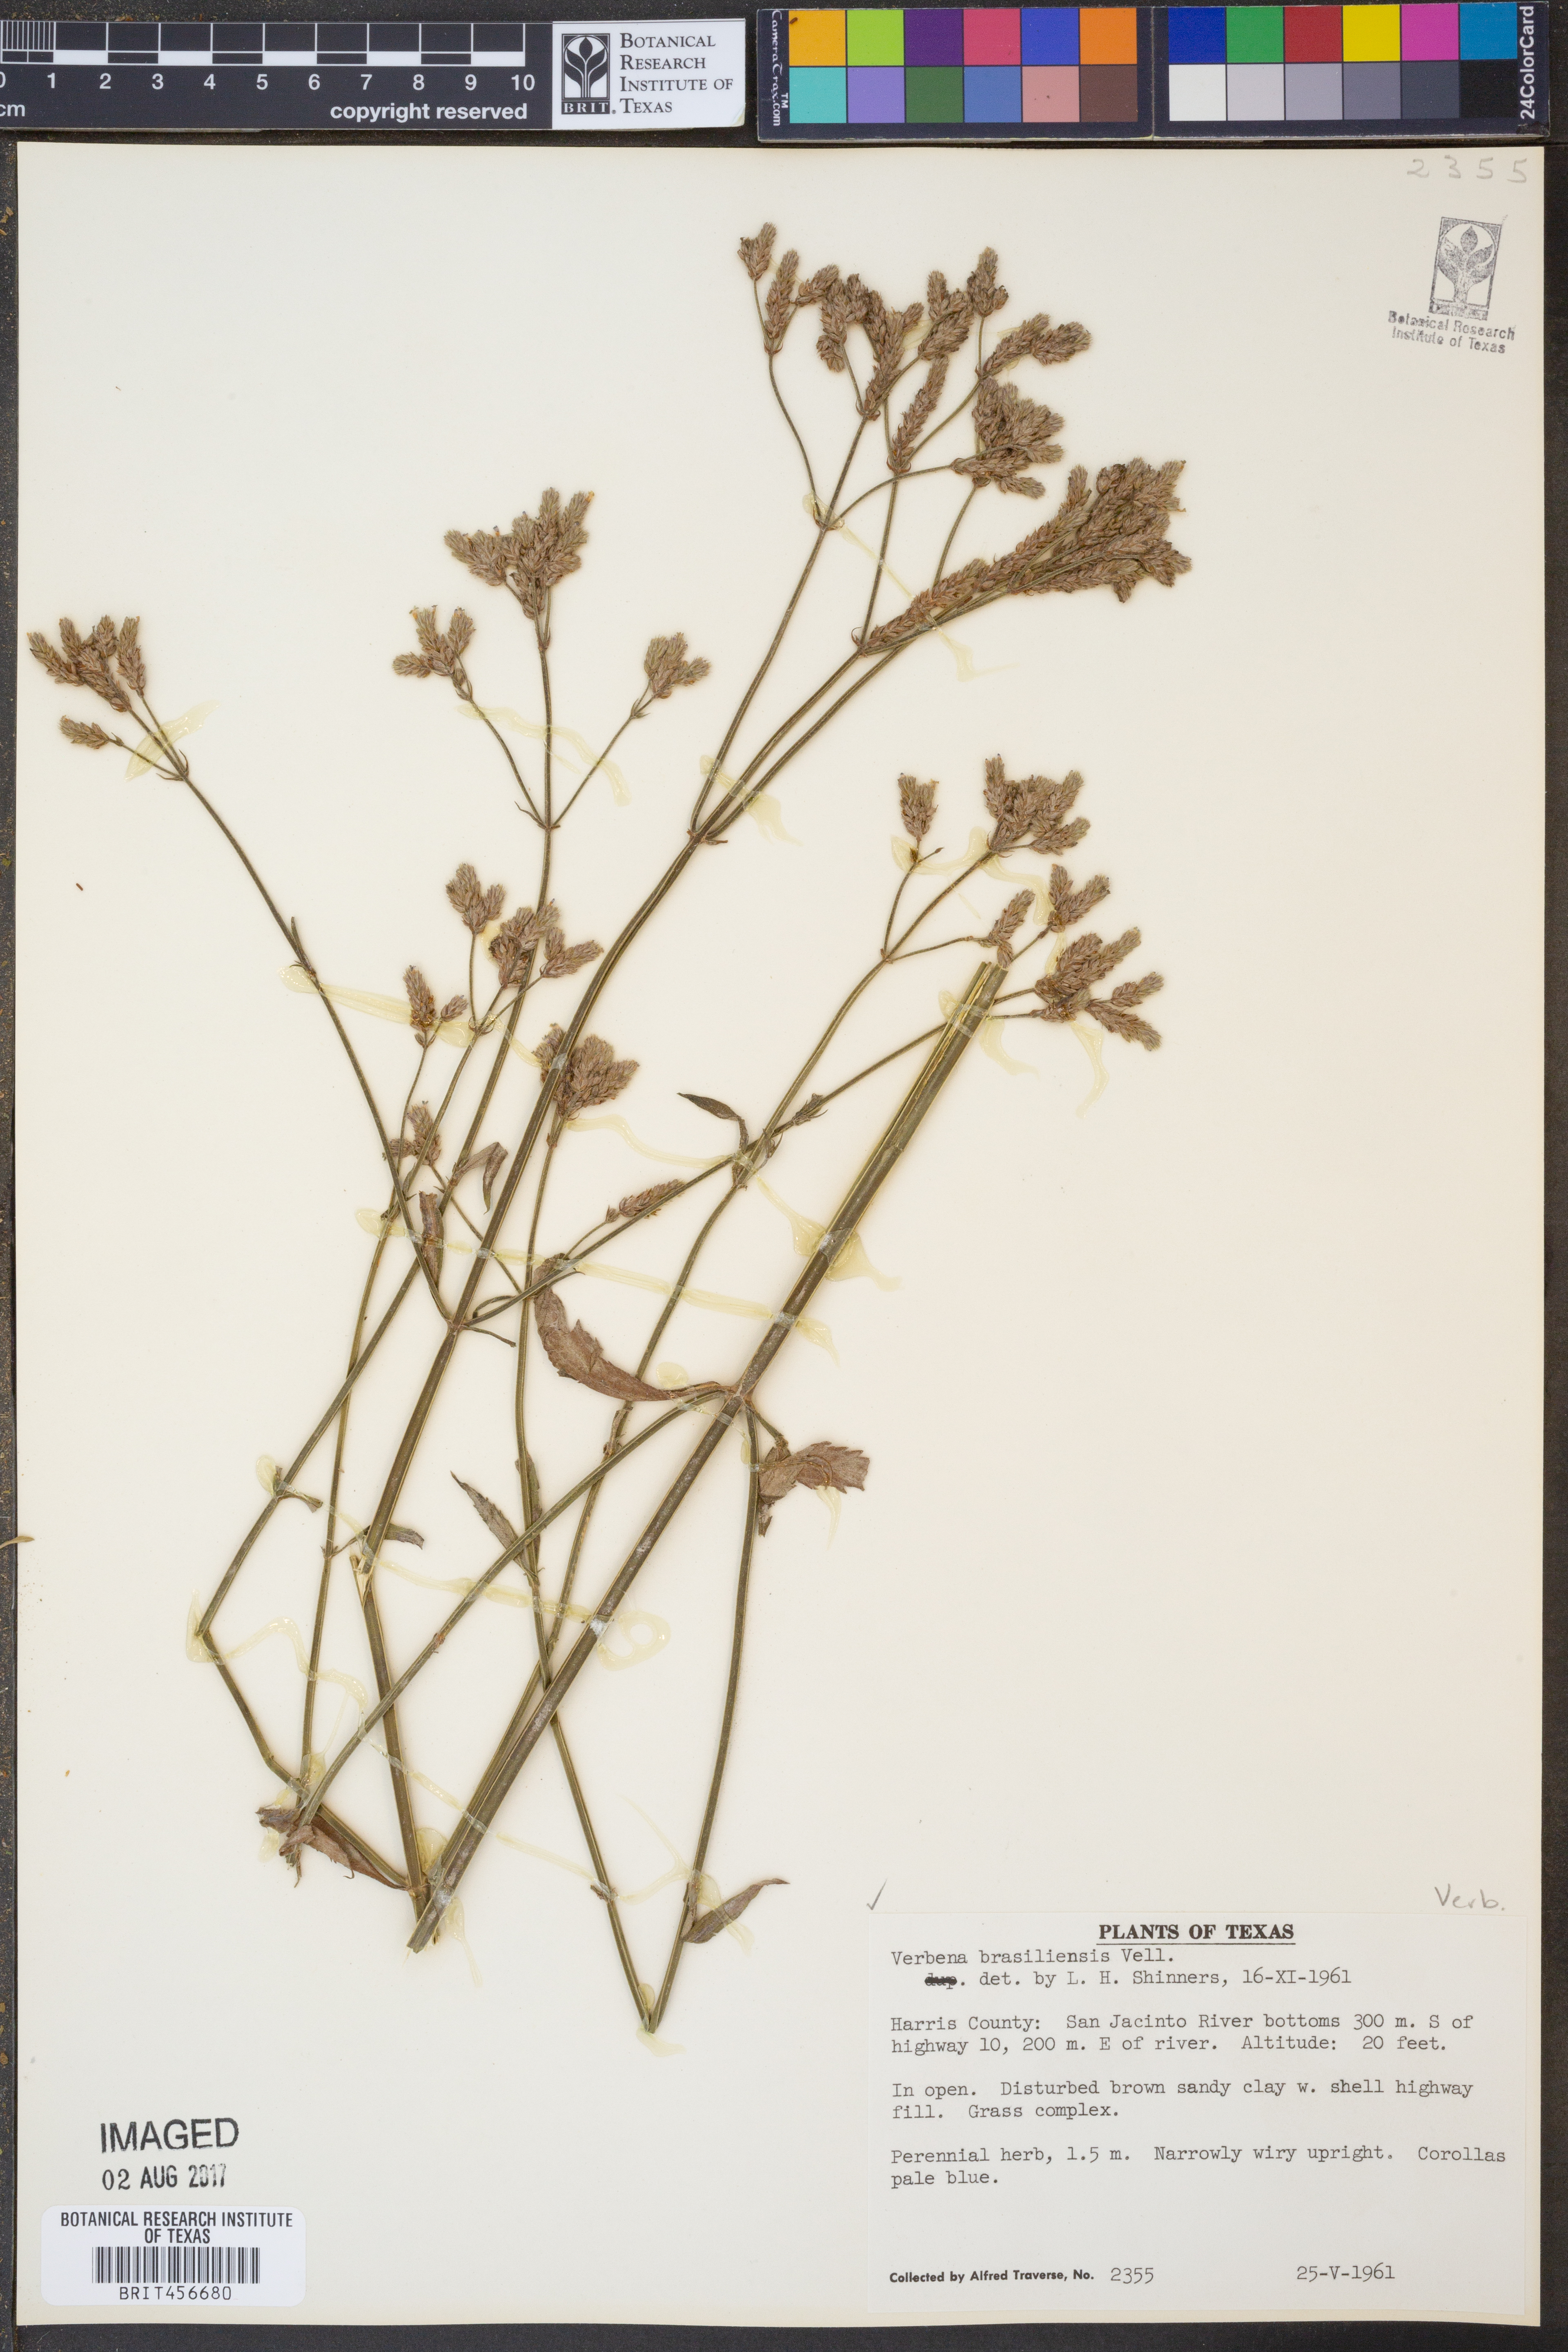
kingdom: Plantae
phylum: Tracheophyta
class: Magnoliopsida
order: Lamiales
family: Verbenaceae
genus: Verbena
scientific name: Verbena brasiliensis
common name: Brazilian vervain
